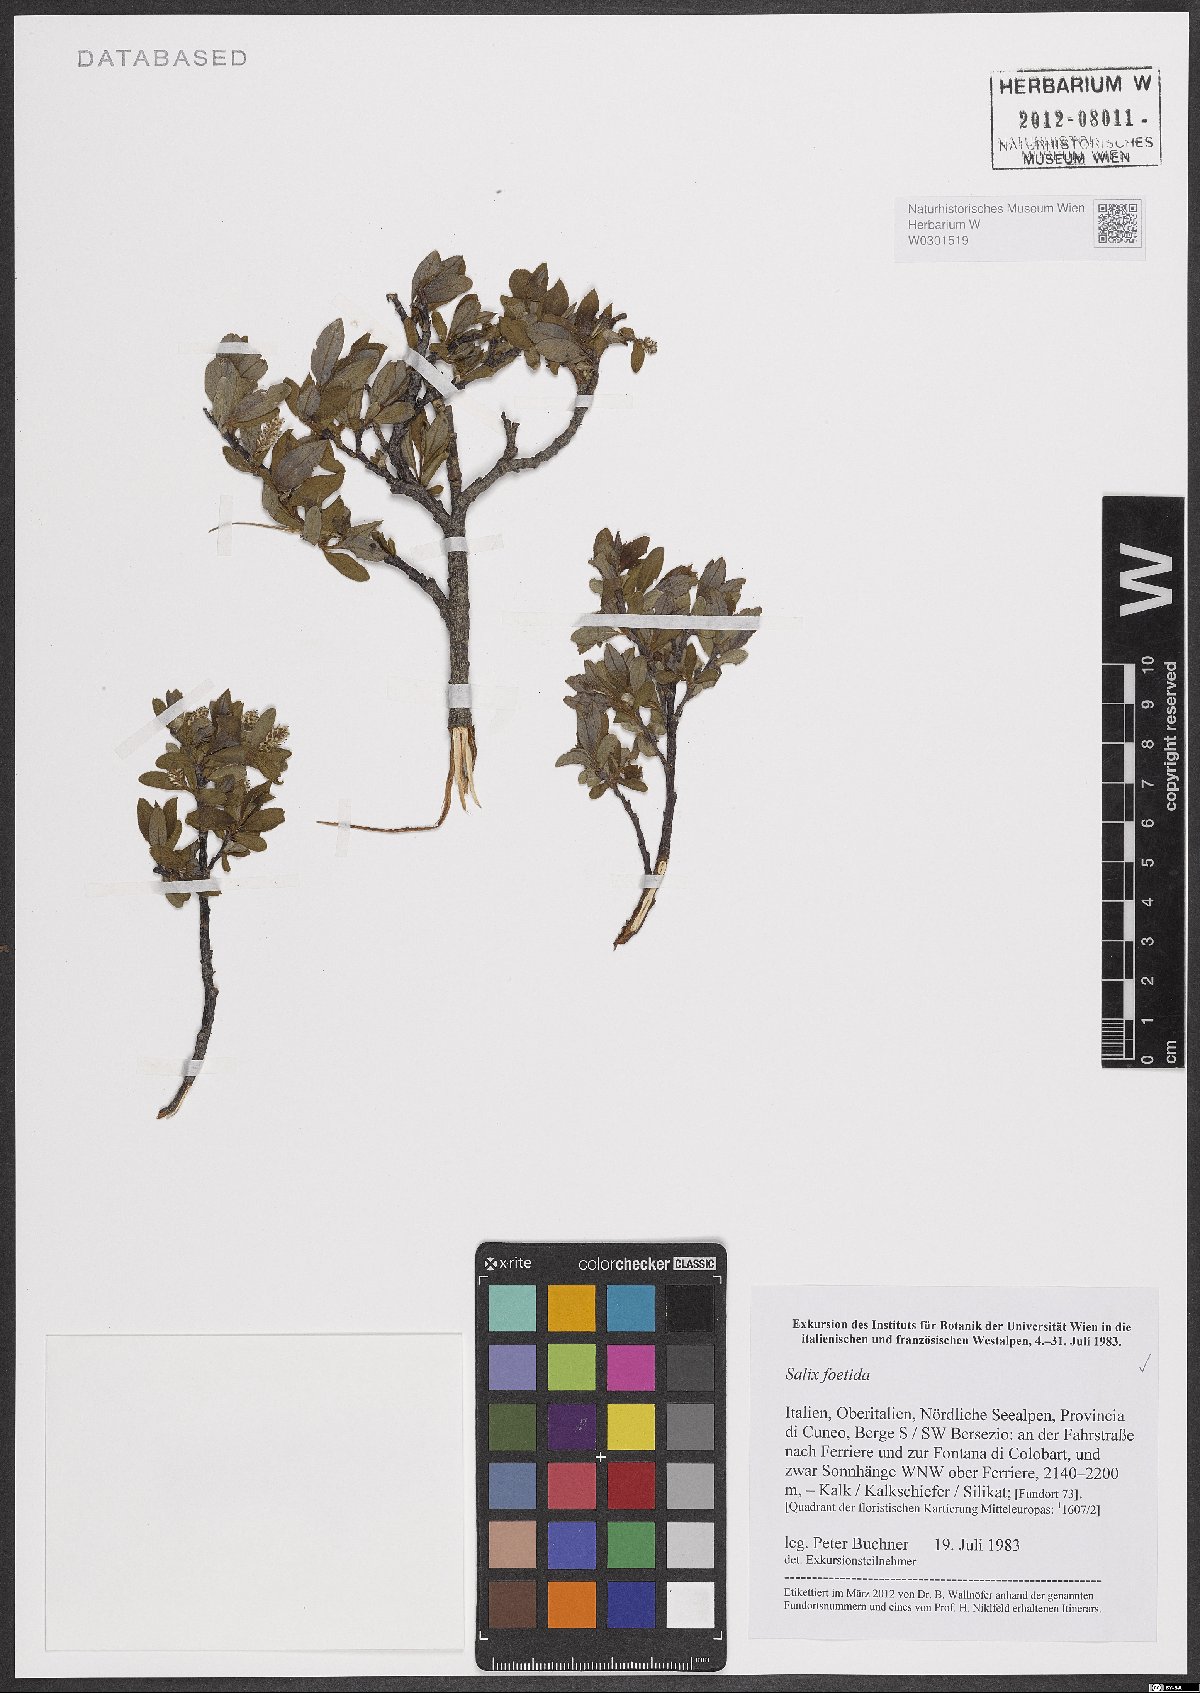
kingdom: Plantae
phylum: Tracheophyta
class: Magnoliopsida
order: Malpighiales
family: Salicaceae
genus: Salix
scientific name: Salix foetida
